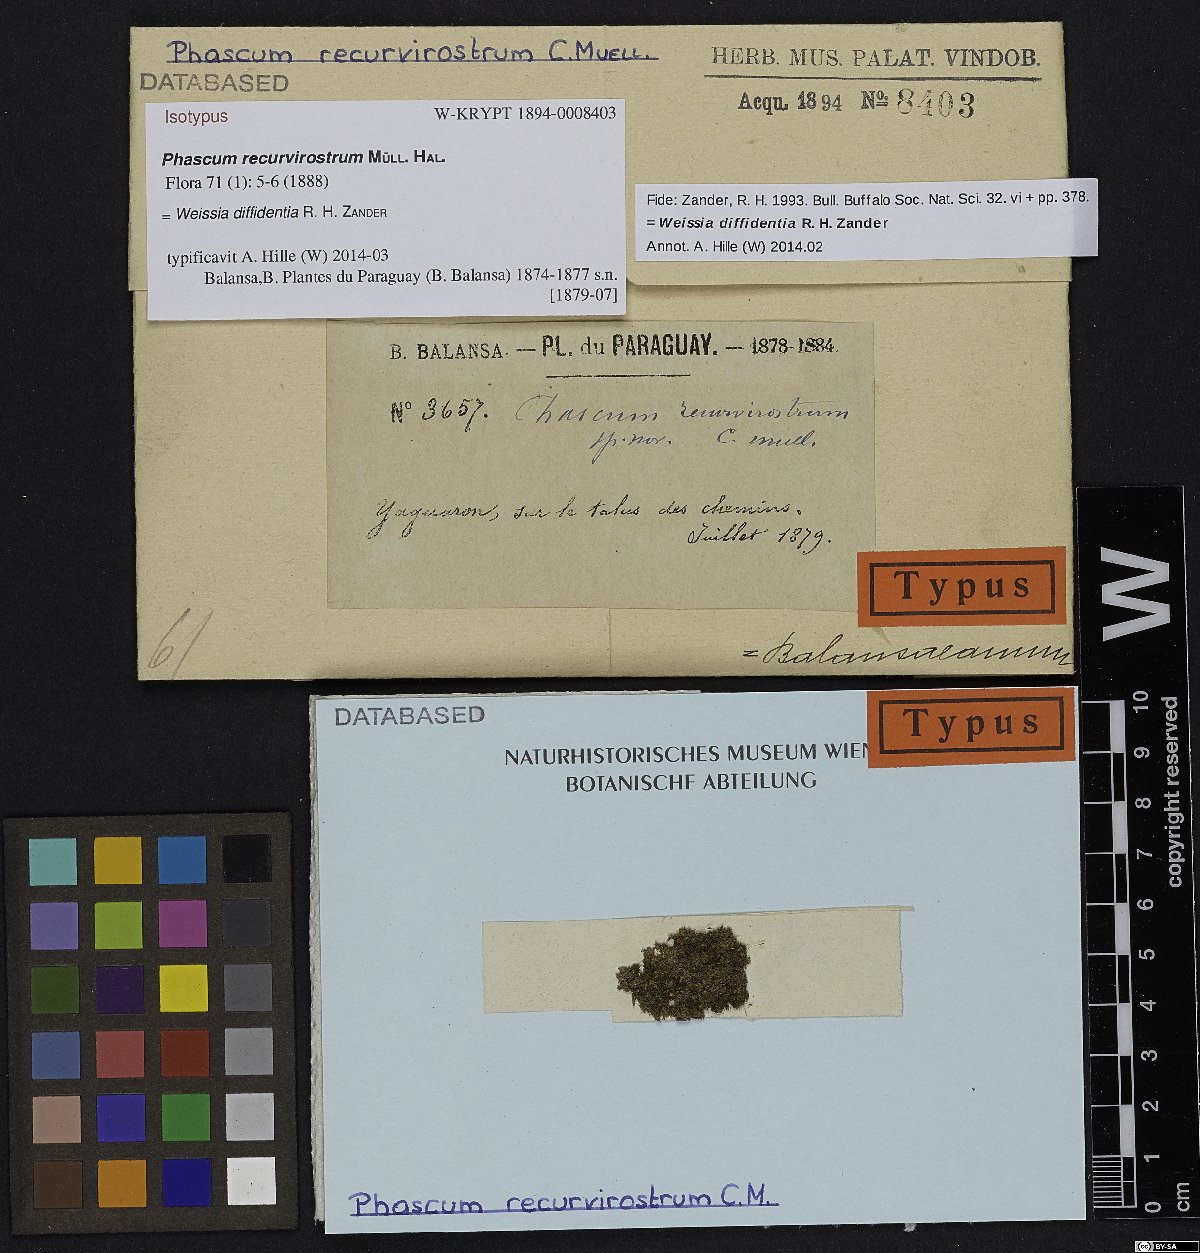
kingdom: Plantae
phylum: Bryophyta
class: Bryopsida
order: Pottiales
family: Pottiaceae
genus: Weissia
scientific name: Weissia diffidentia
